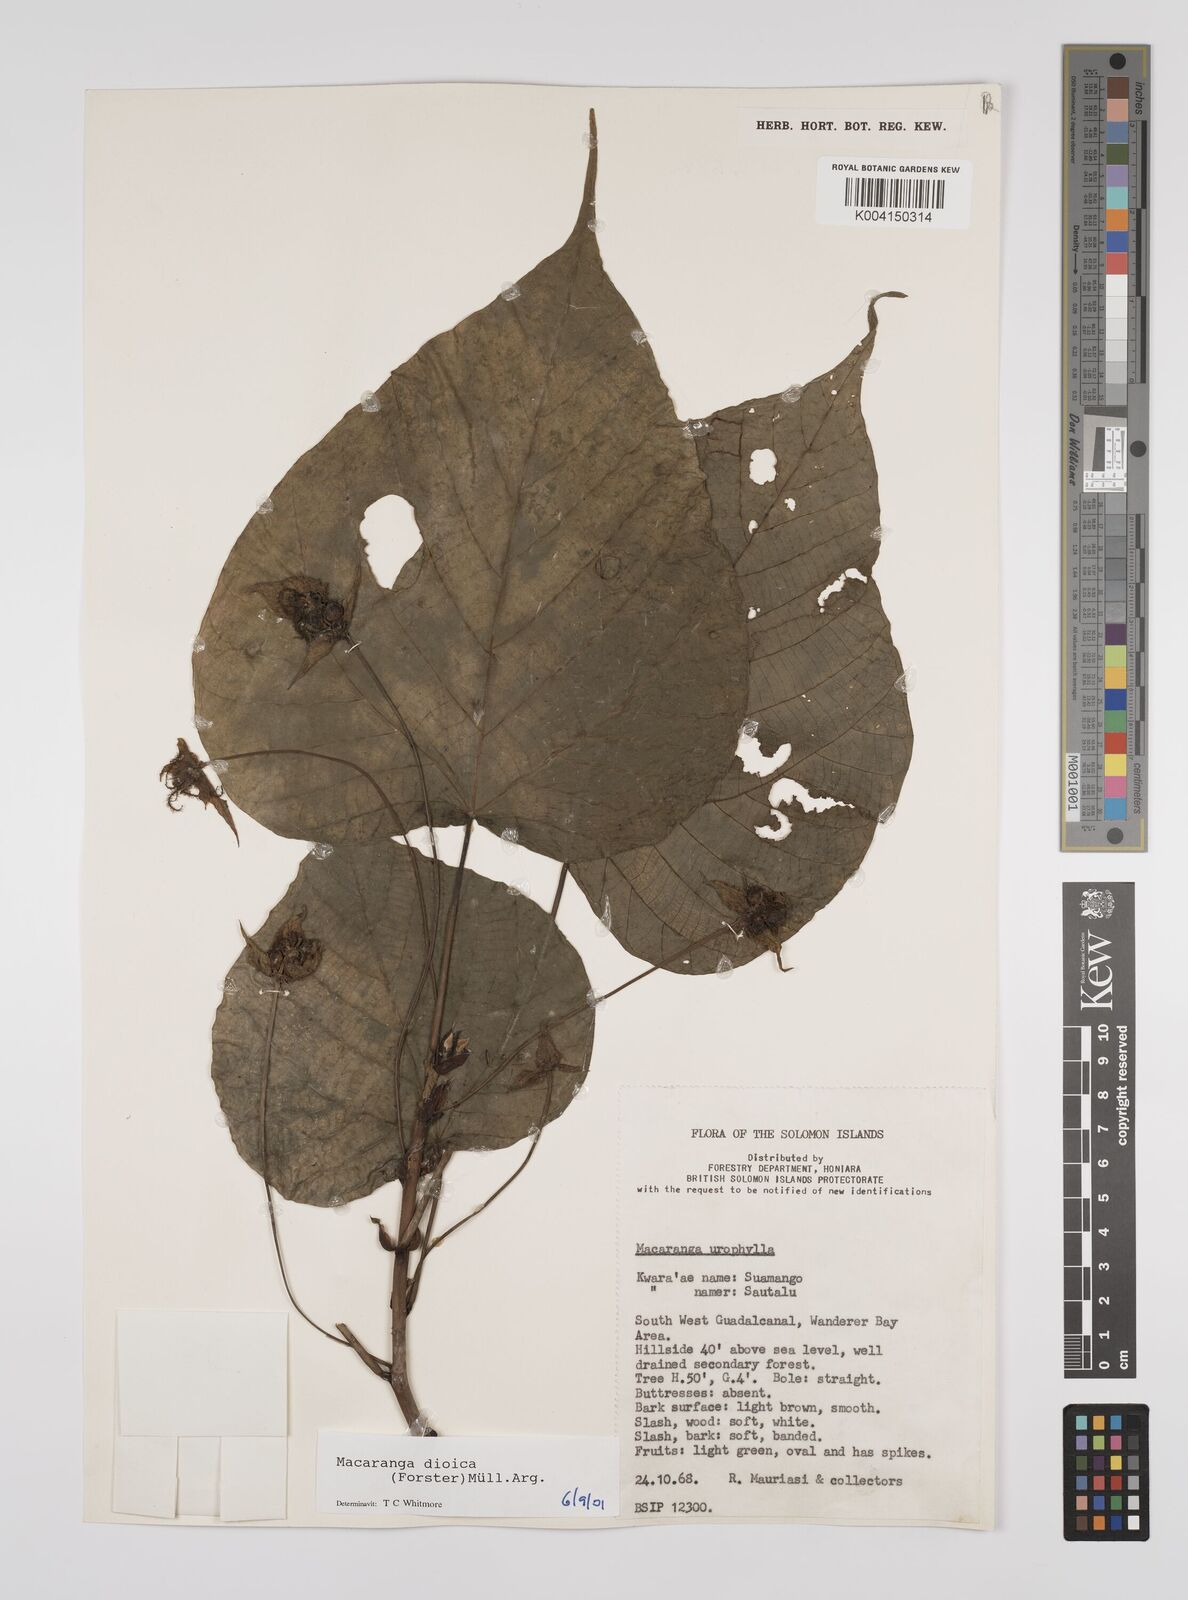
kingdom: Plantae
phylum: Tracheophyta
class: Magnoliopsida
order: Malpighiales
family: Euphorbiaceae
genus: Macaranga
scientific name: Macaranga dioica
